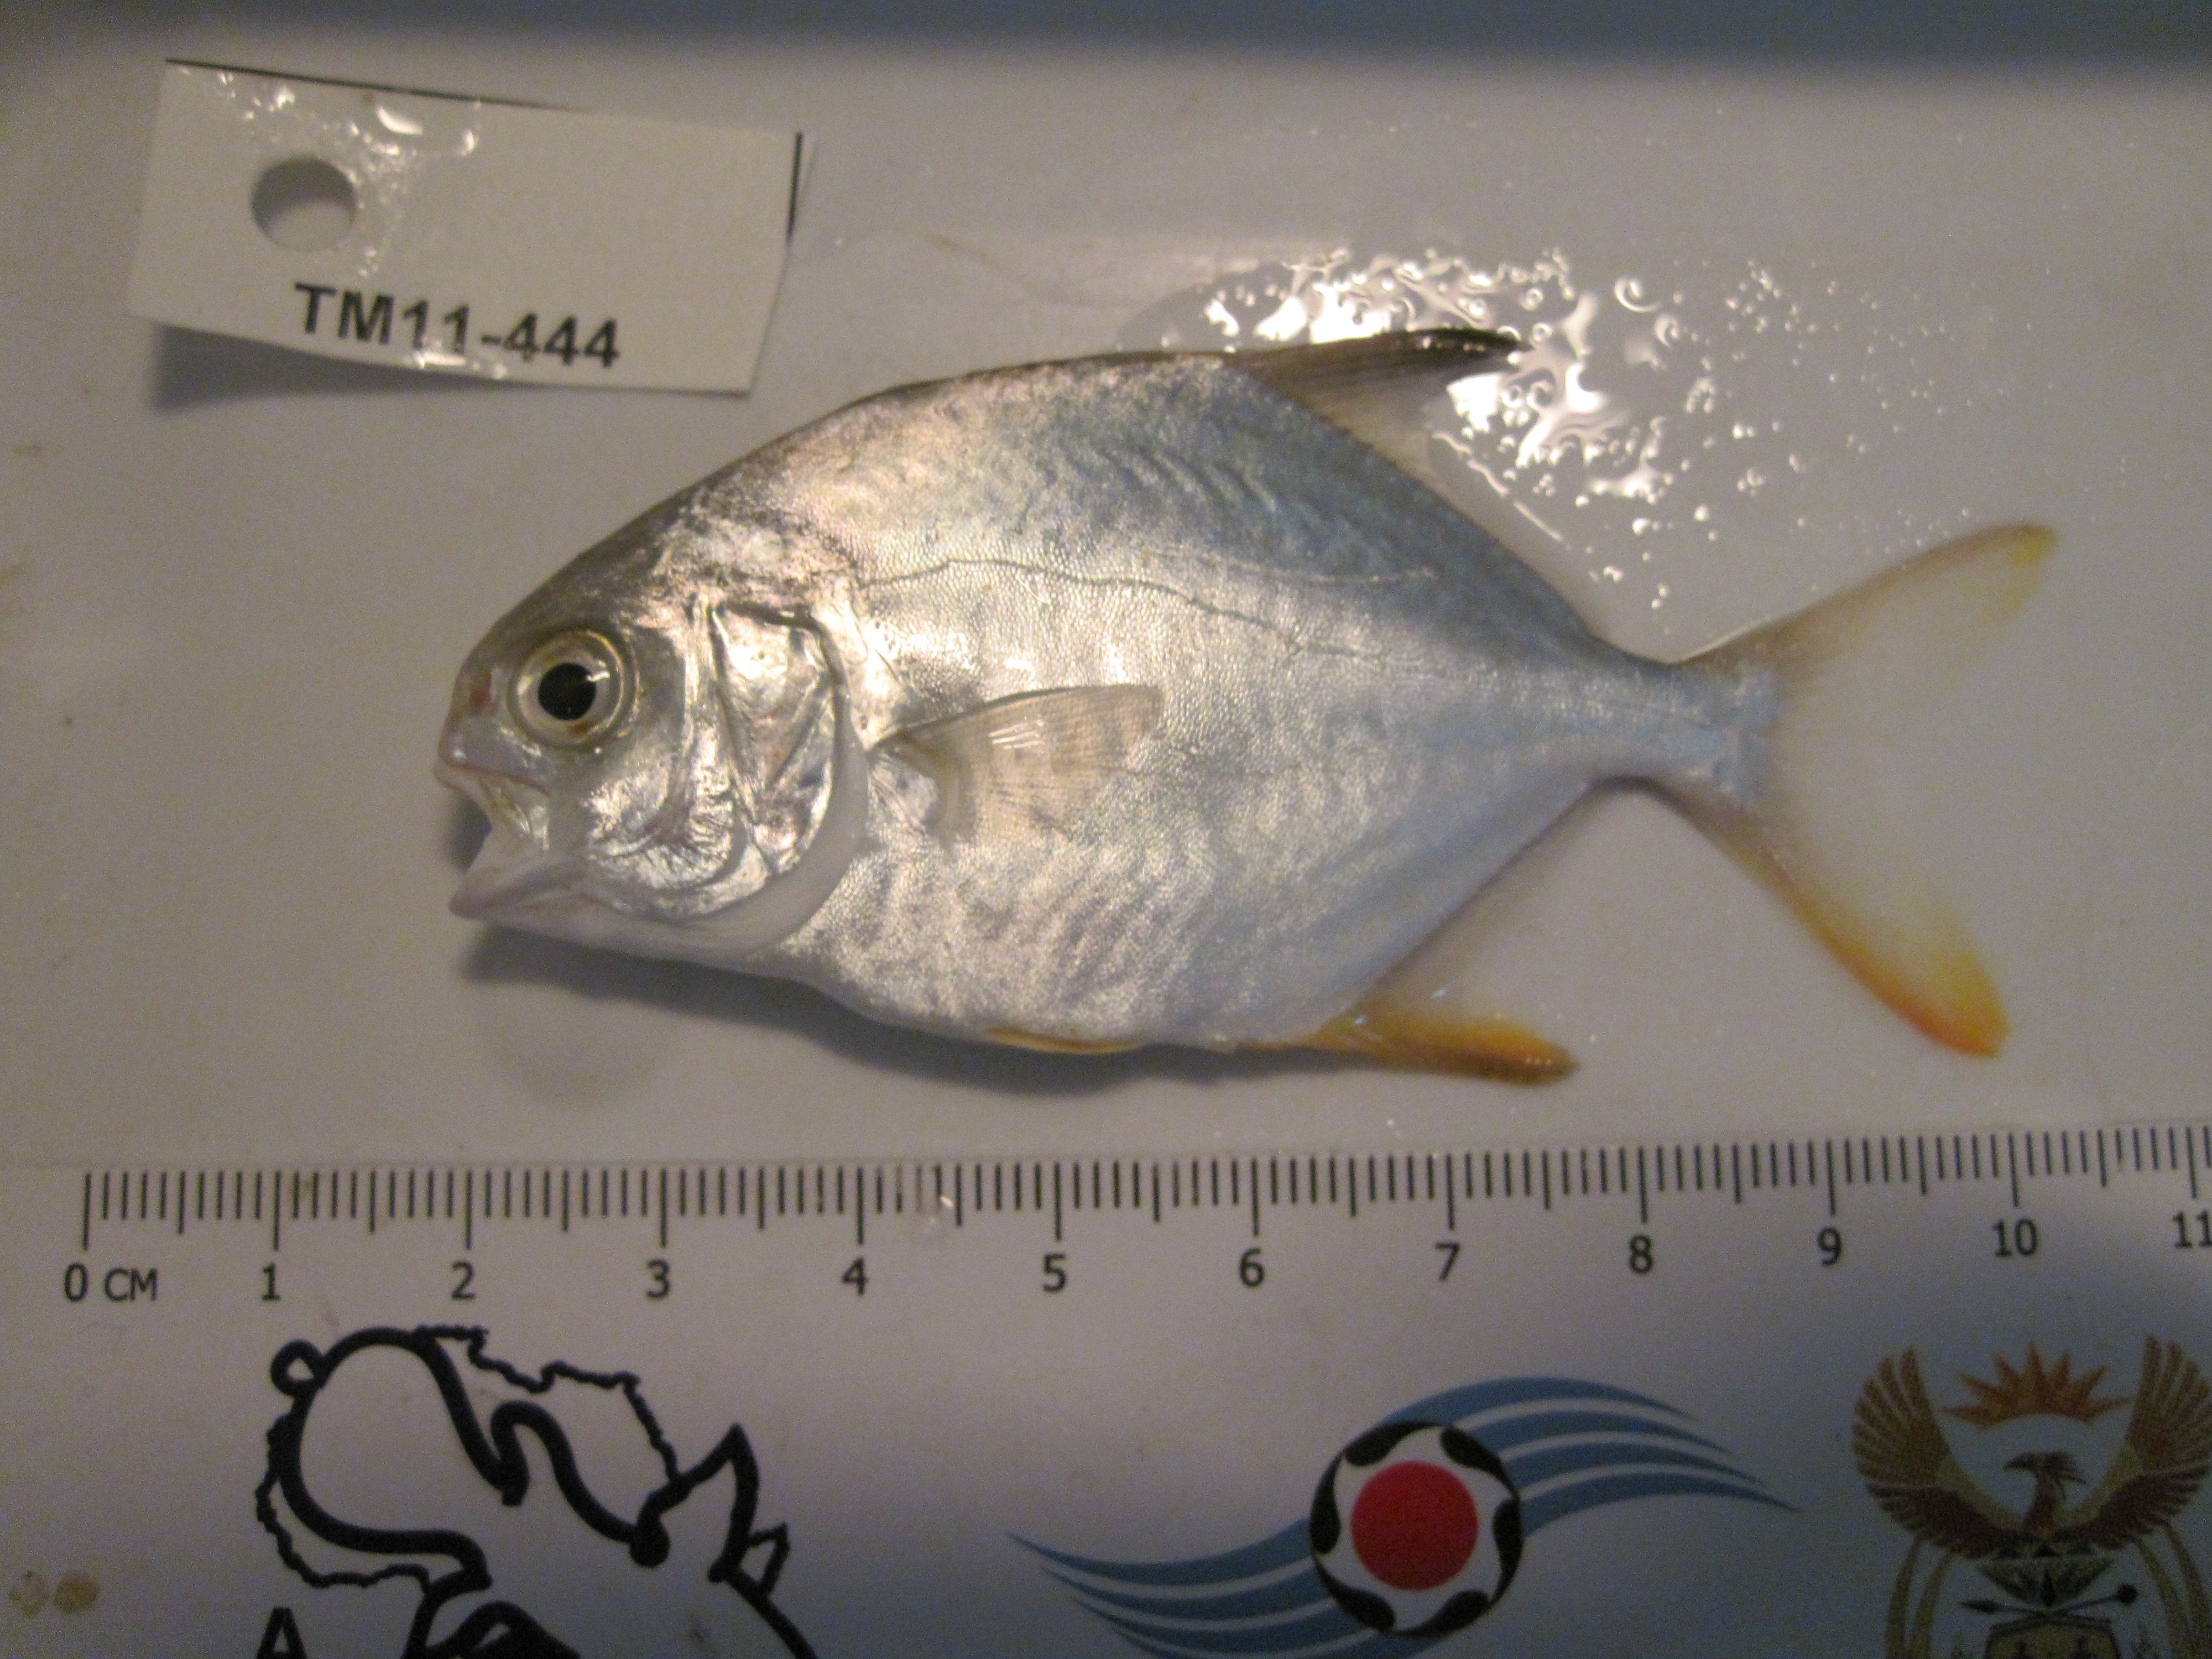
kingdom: Animalia
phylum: Chordata
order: Perciformes
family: Carangidae
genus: Trachinotus
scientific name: Trachinotus blochii
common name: Snubnose pompano
